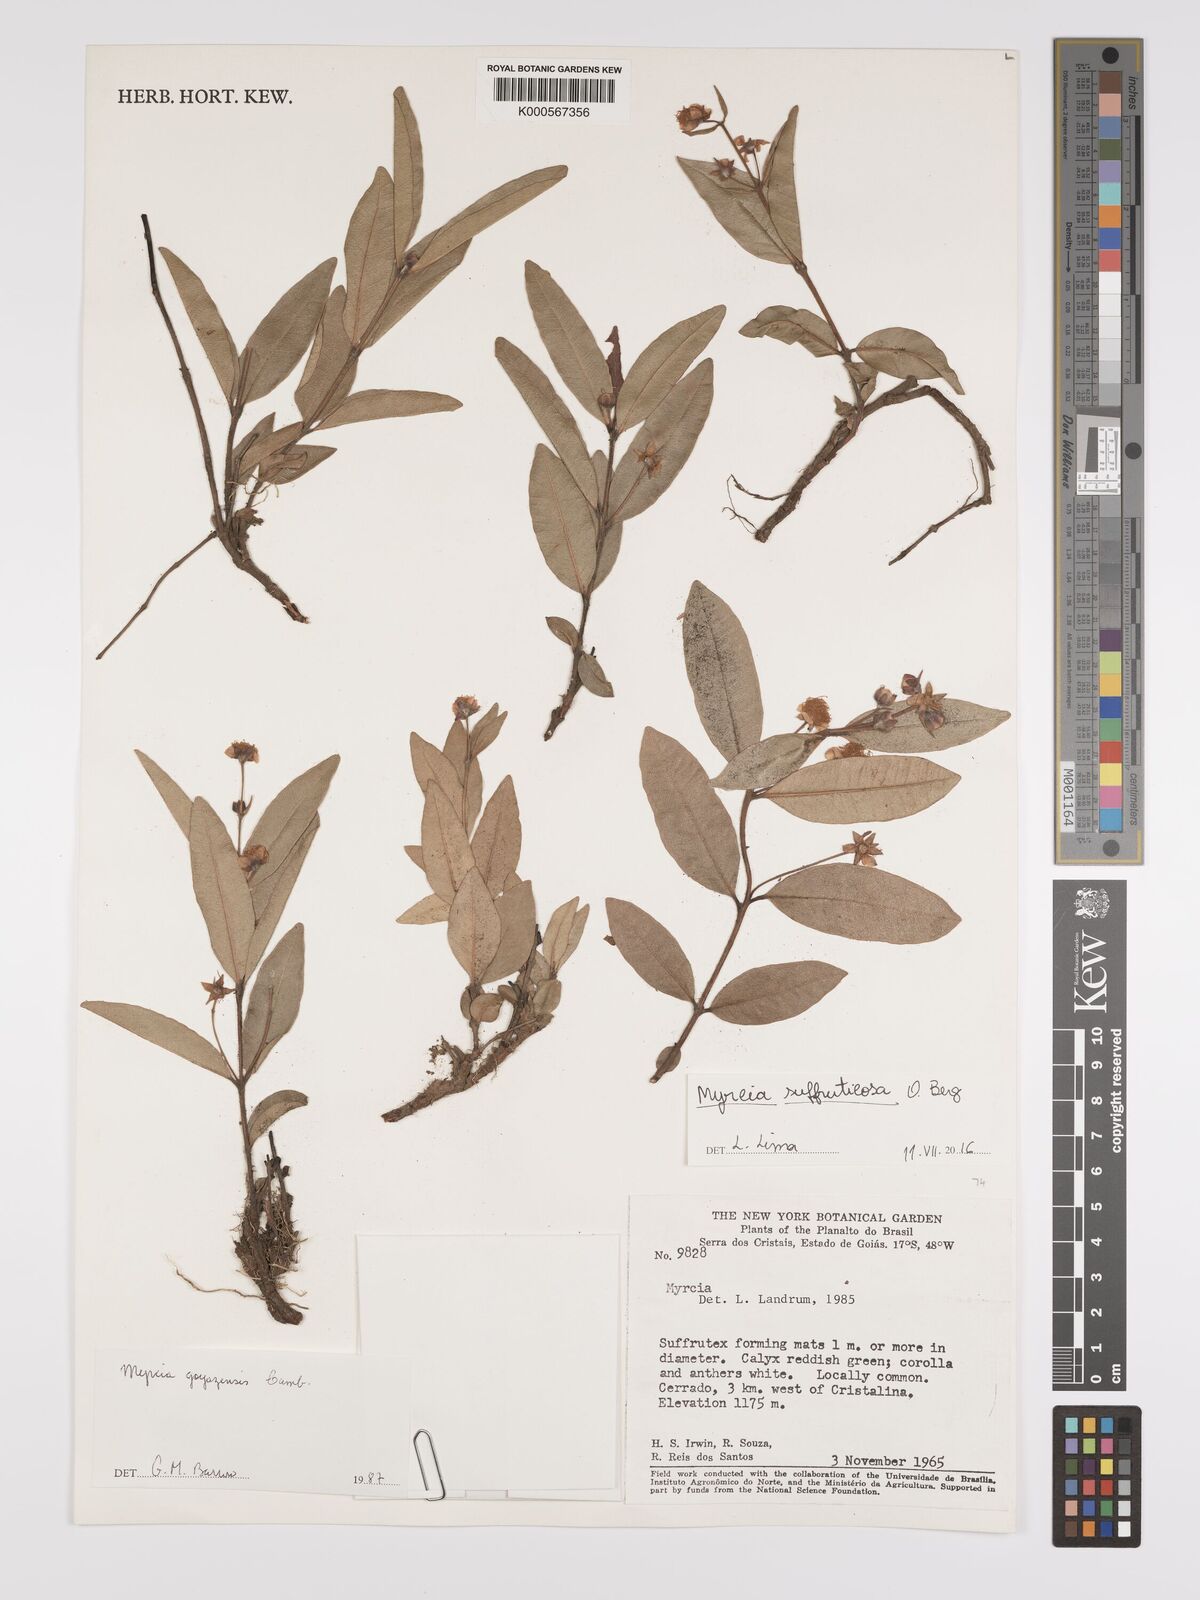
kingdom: Plantae
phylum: Tracheophyta
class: Magnoliopsida
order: Myrtales
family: Myrtaceae
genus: Myrcia
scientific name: Myrcia suffruticosa
